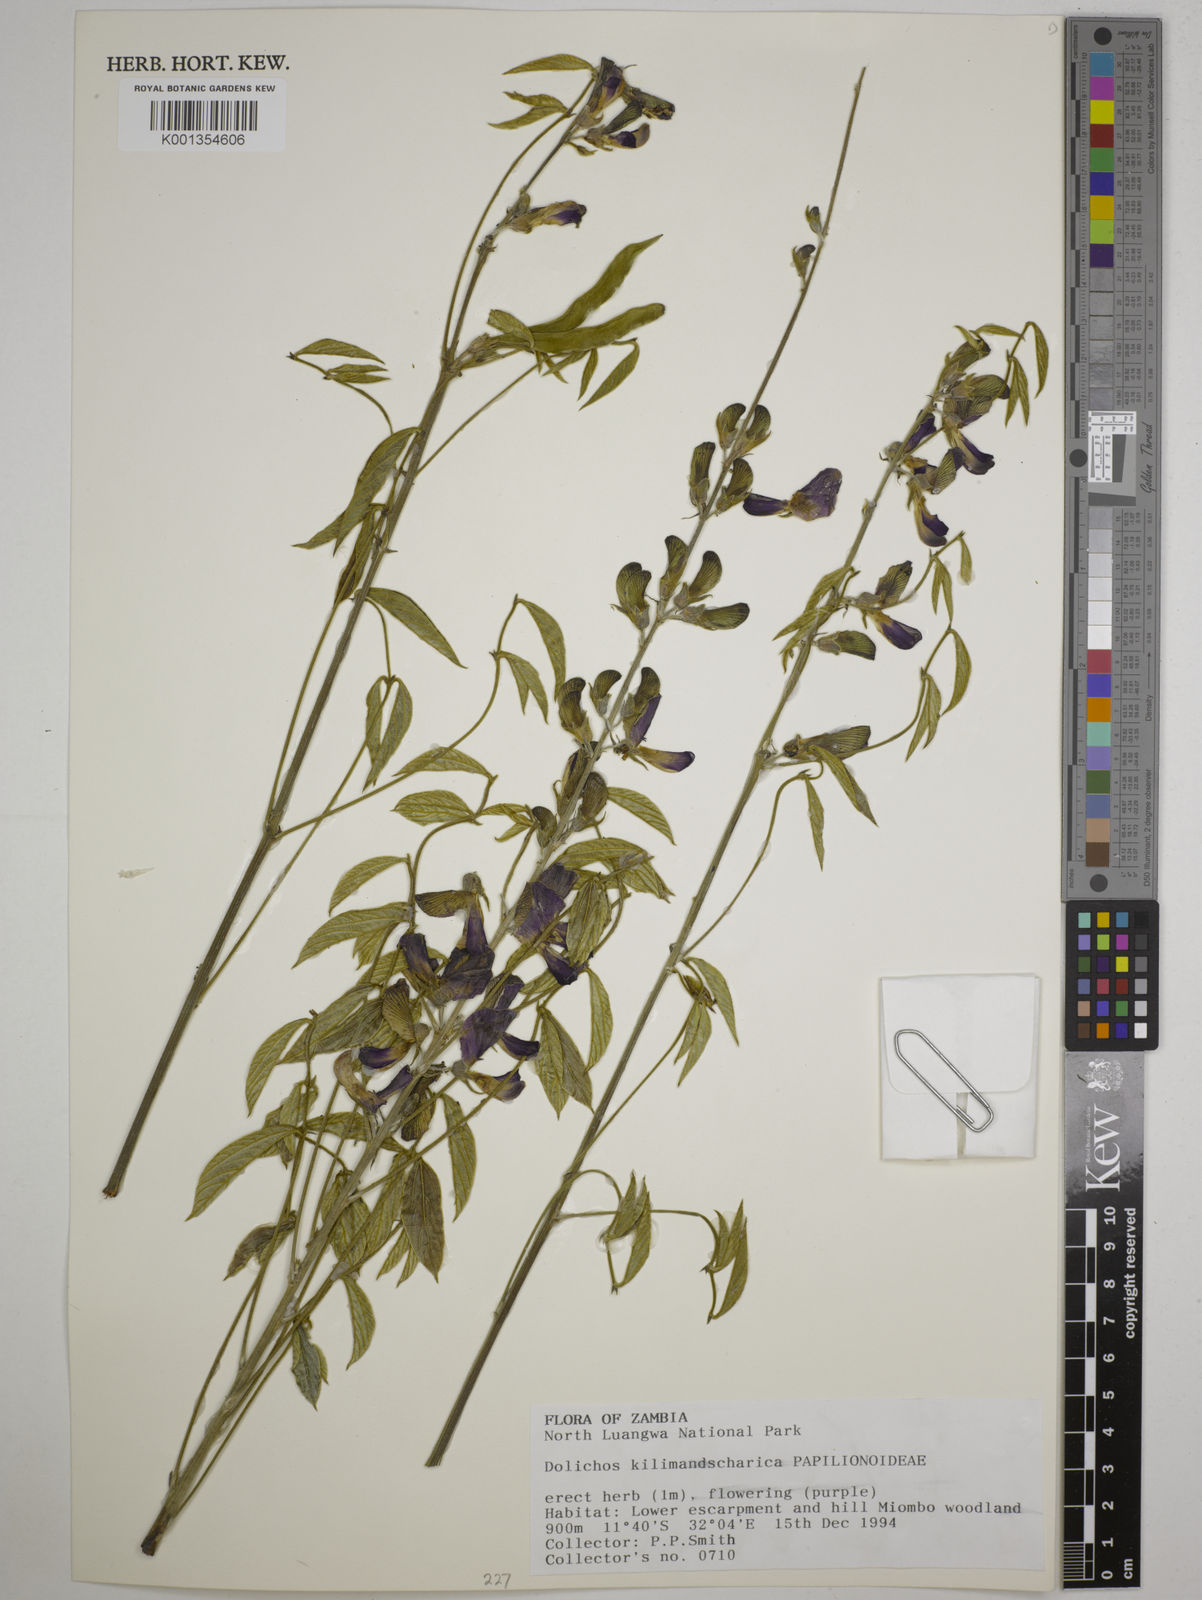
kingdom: Plantae
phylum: Tracheophyta
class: Magnoliopsida
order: Fabales
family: Fabaceae
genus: Dolichos
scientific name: Dolichos kilimandscharicus
